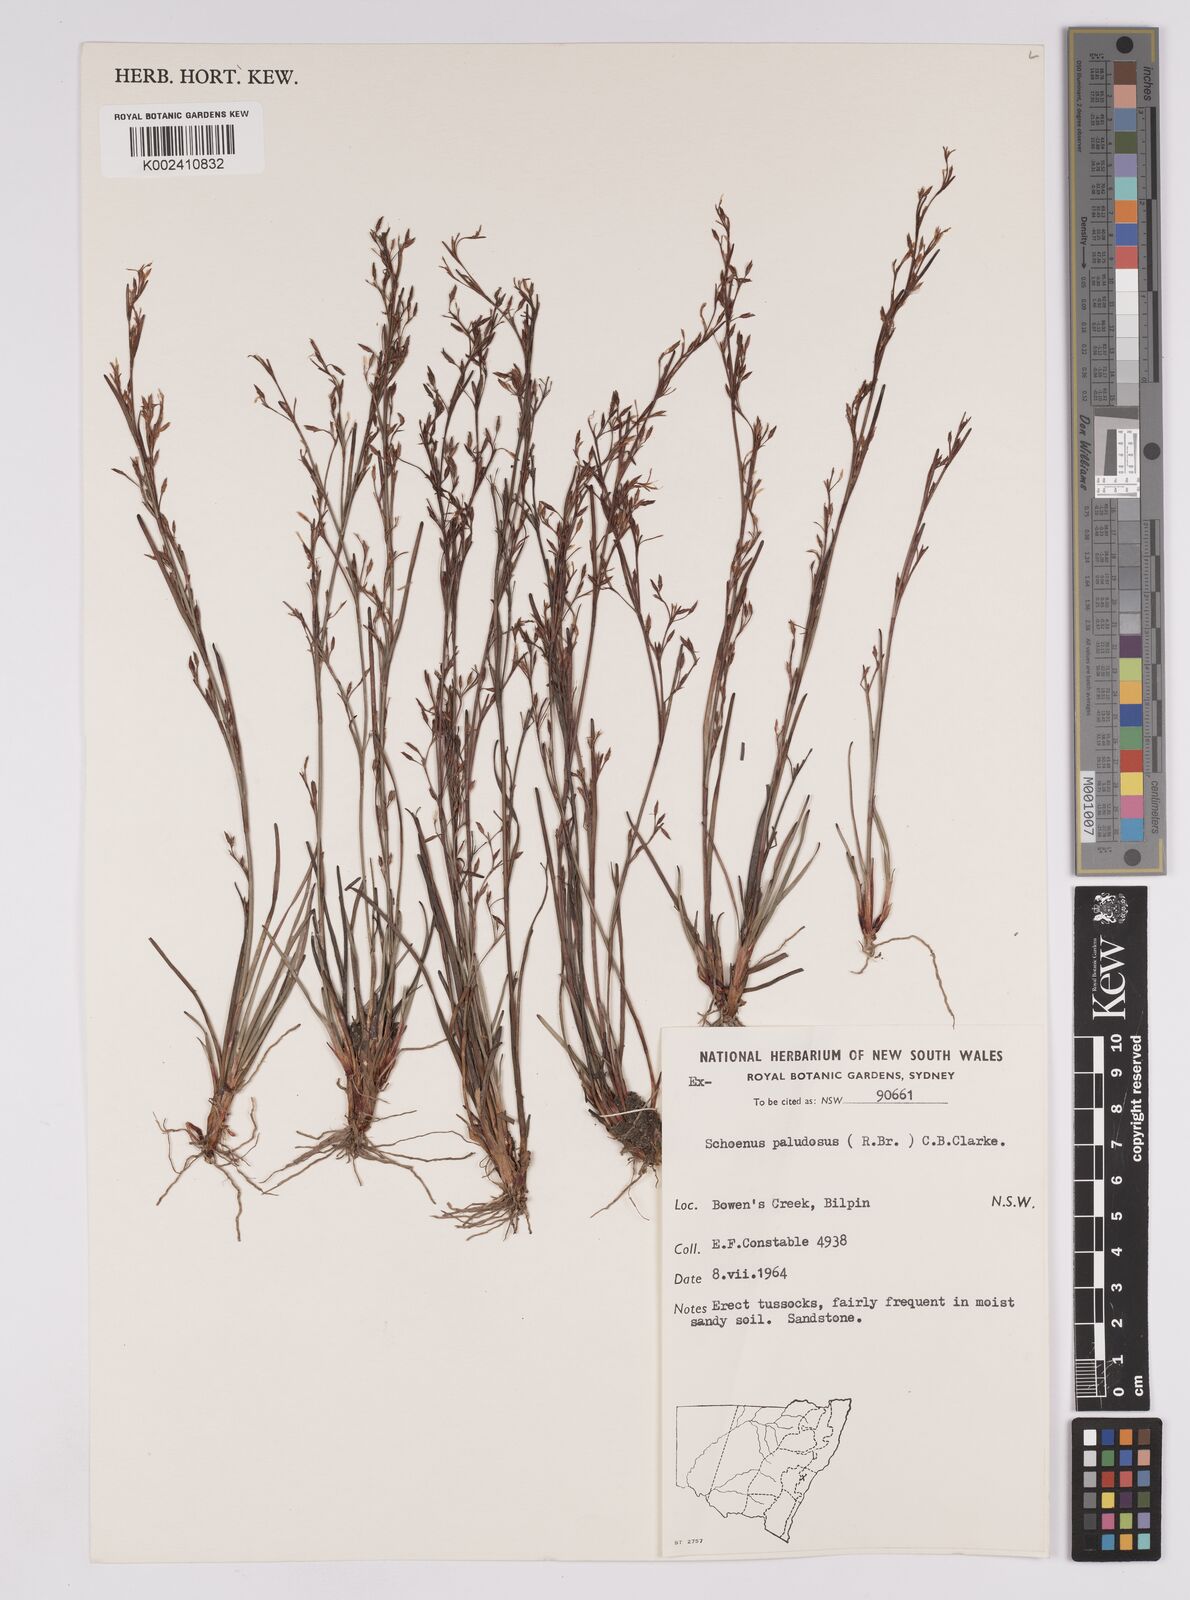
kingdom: Plantae
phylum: Tracheophyta
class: Liliopsida
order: Poales
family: Cyperaceae
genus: Anthelepis
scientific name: Anthelepis paludosa
